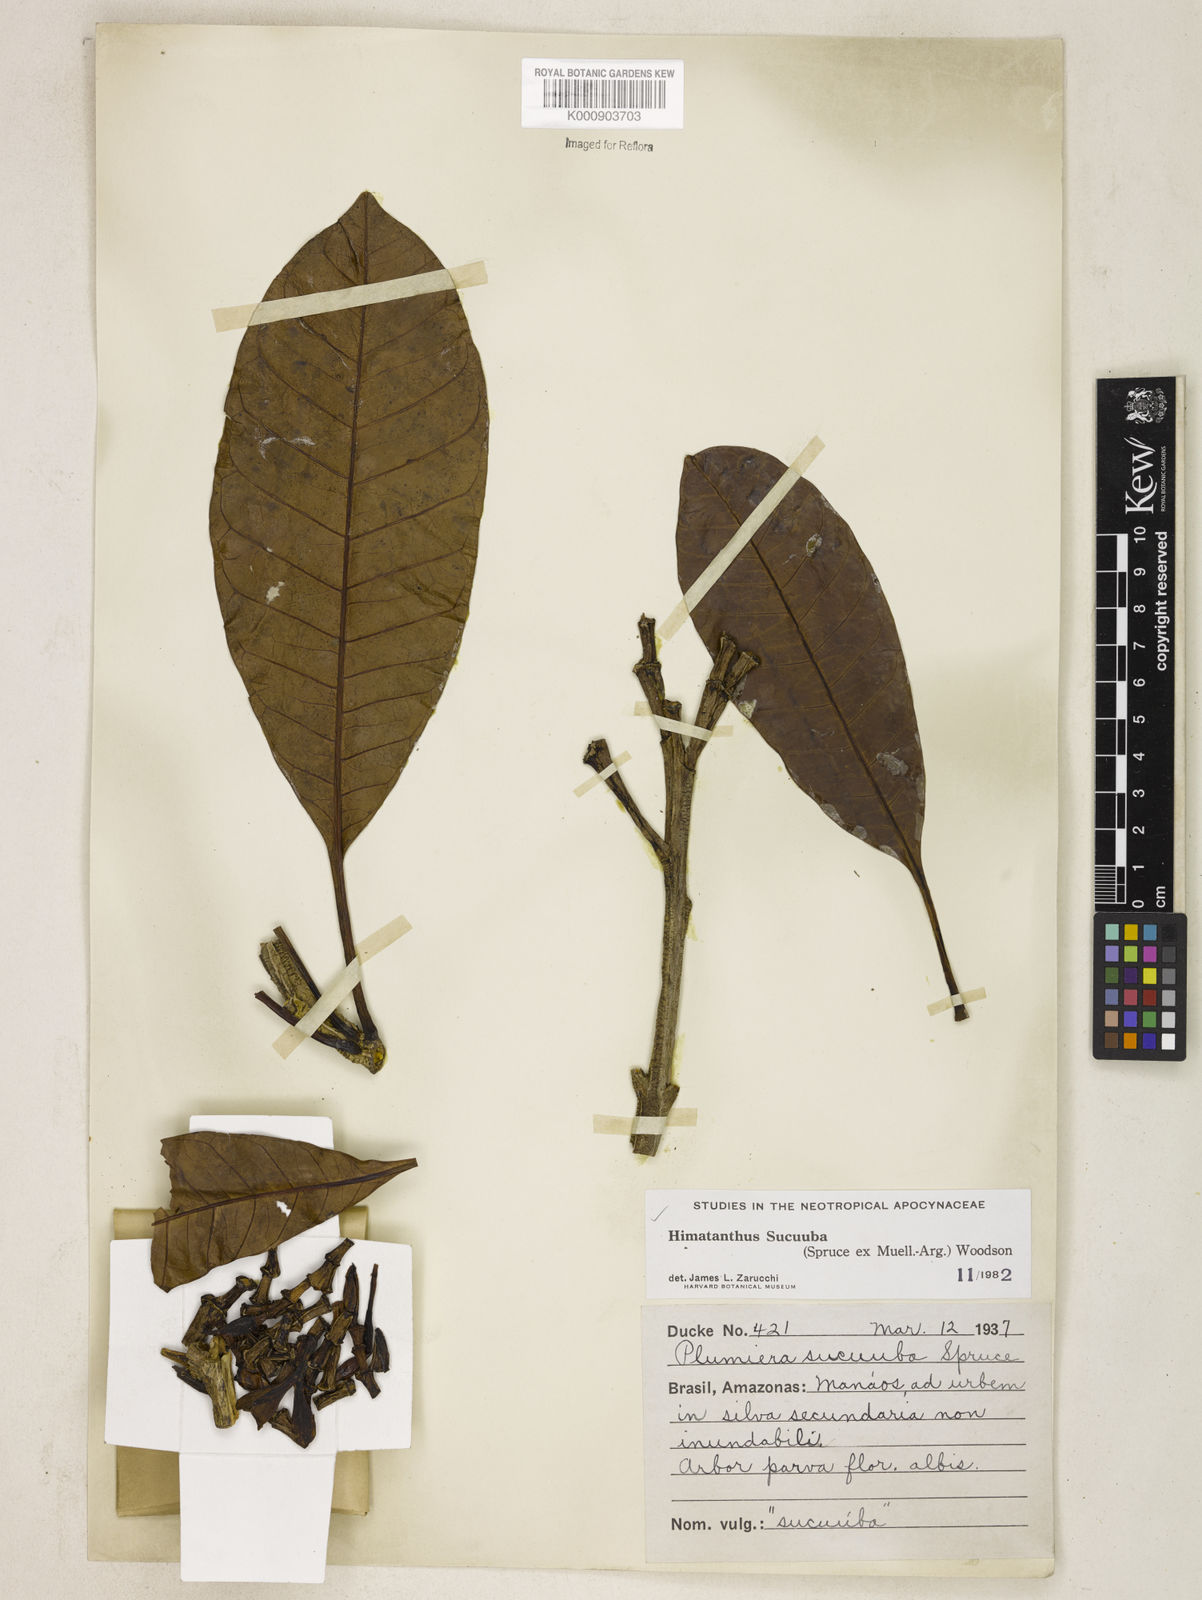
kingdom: Plantae
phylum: Tracheophyta
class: Magnoliopsida
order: Gentianales
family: Apocynaceae
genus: Himatanthus
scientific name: Himatanthus articulatus
